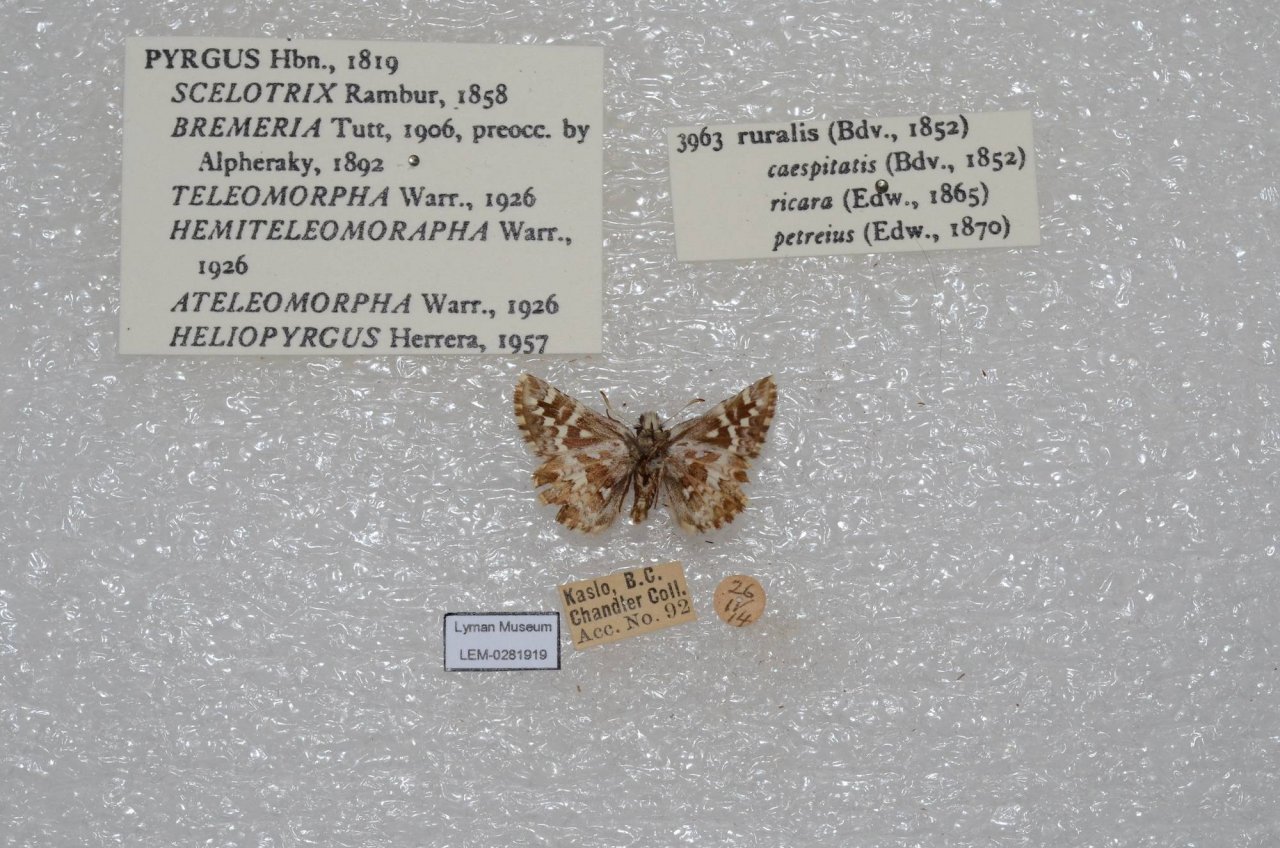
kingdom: Animalia
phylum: Arthropoda
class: Insecta
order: Lepidoptera
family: Hesperiidae
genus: Pyrgus
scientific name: Pyrgus ruralis
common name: Two-banded Checkered-Skipper
